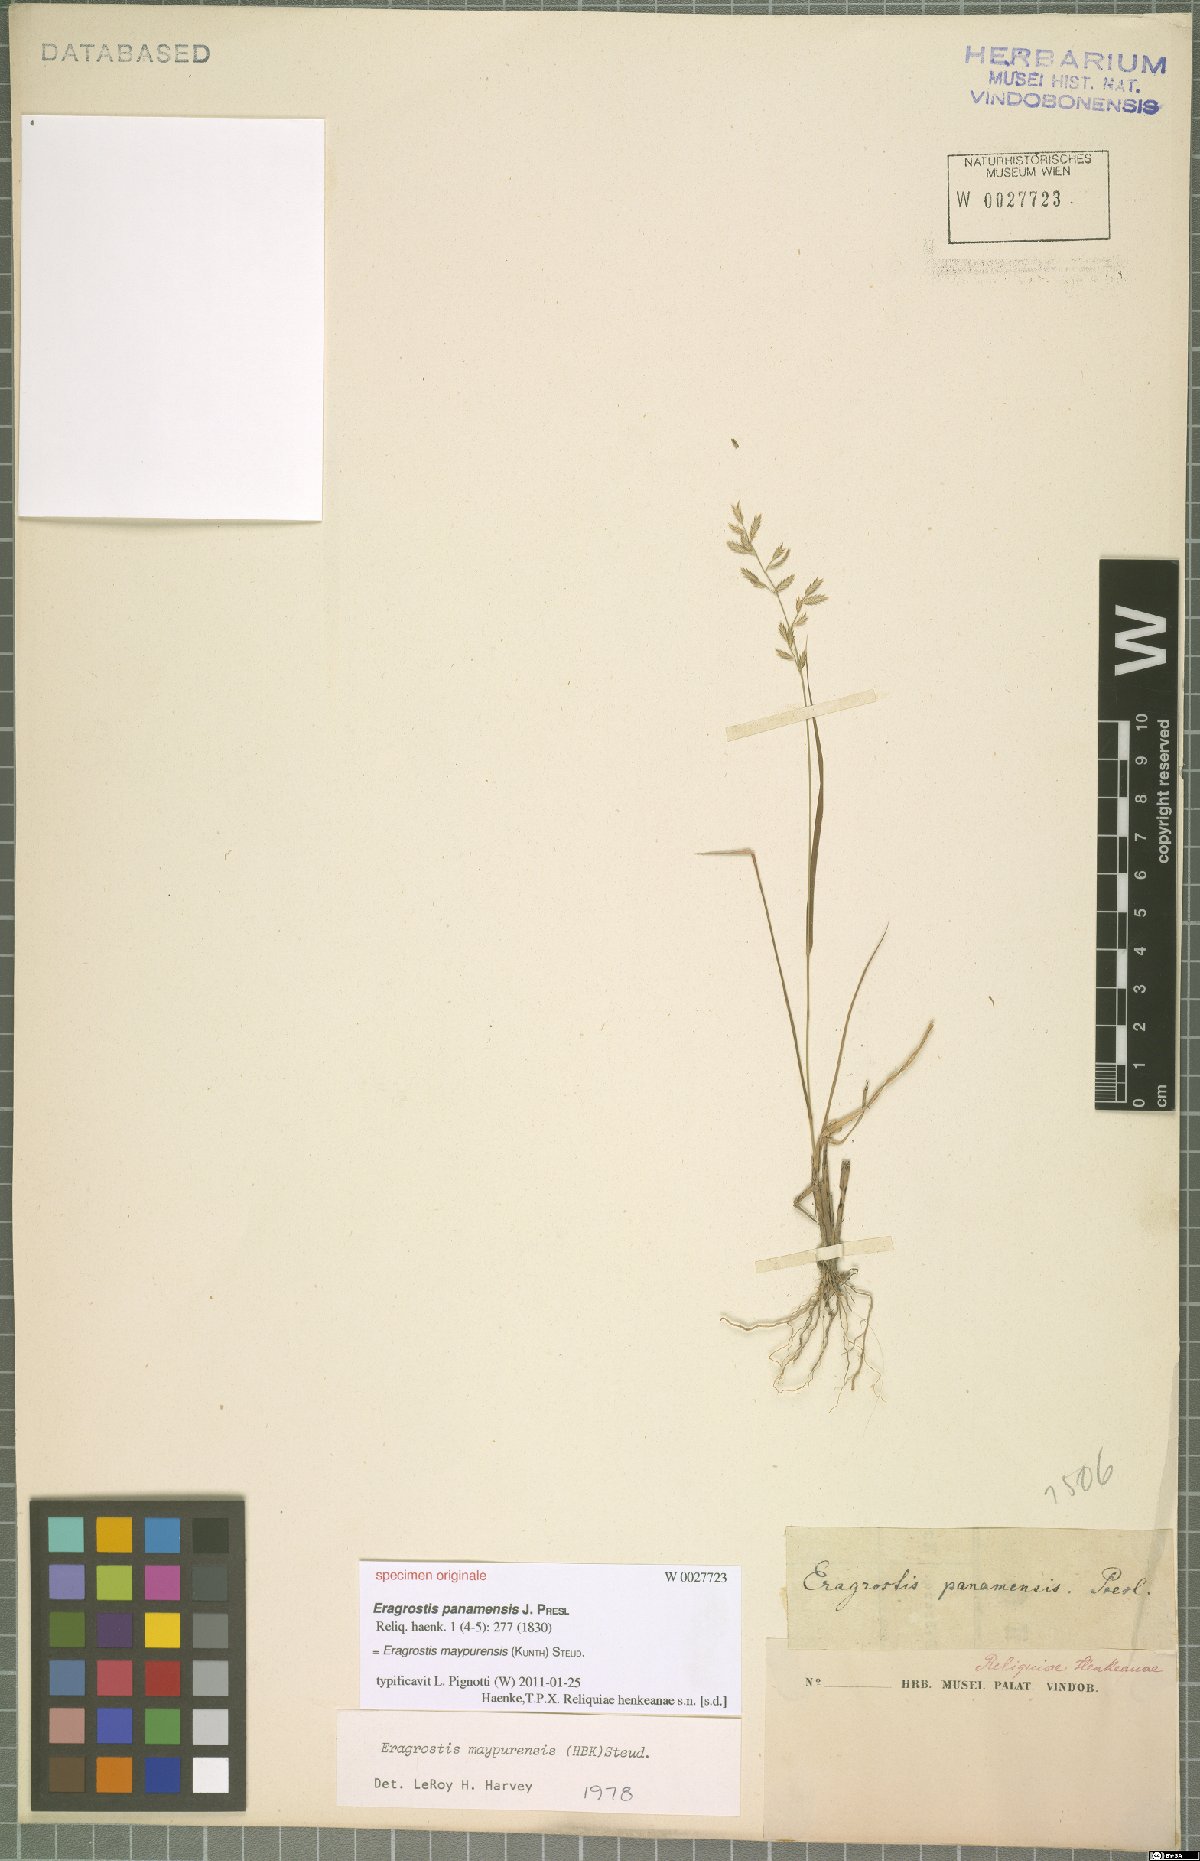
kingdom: Plantae
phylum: Tracheophyta
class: Liliopsida
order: Poales
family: Poaceae
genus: Eragrostis
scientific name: Eragrostis maypurensis
